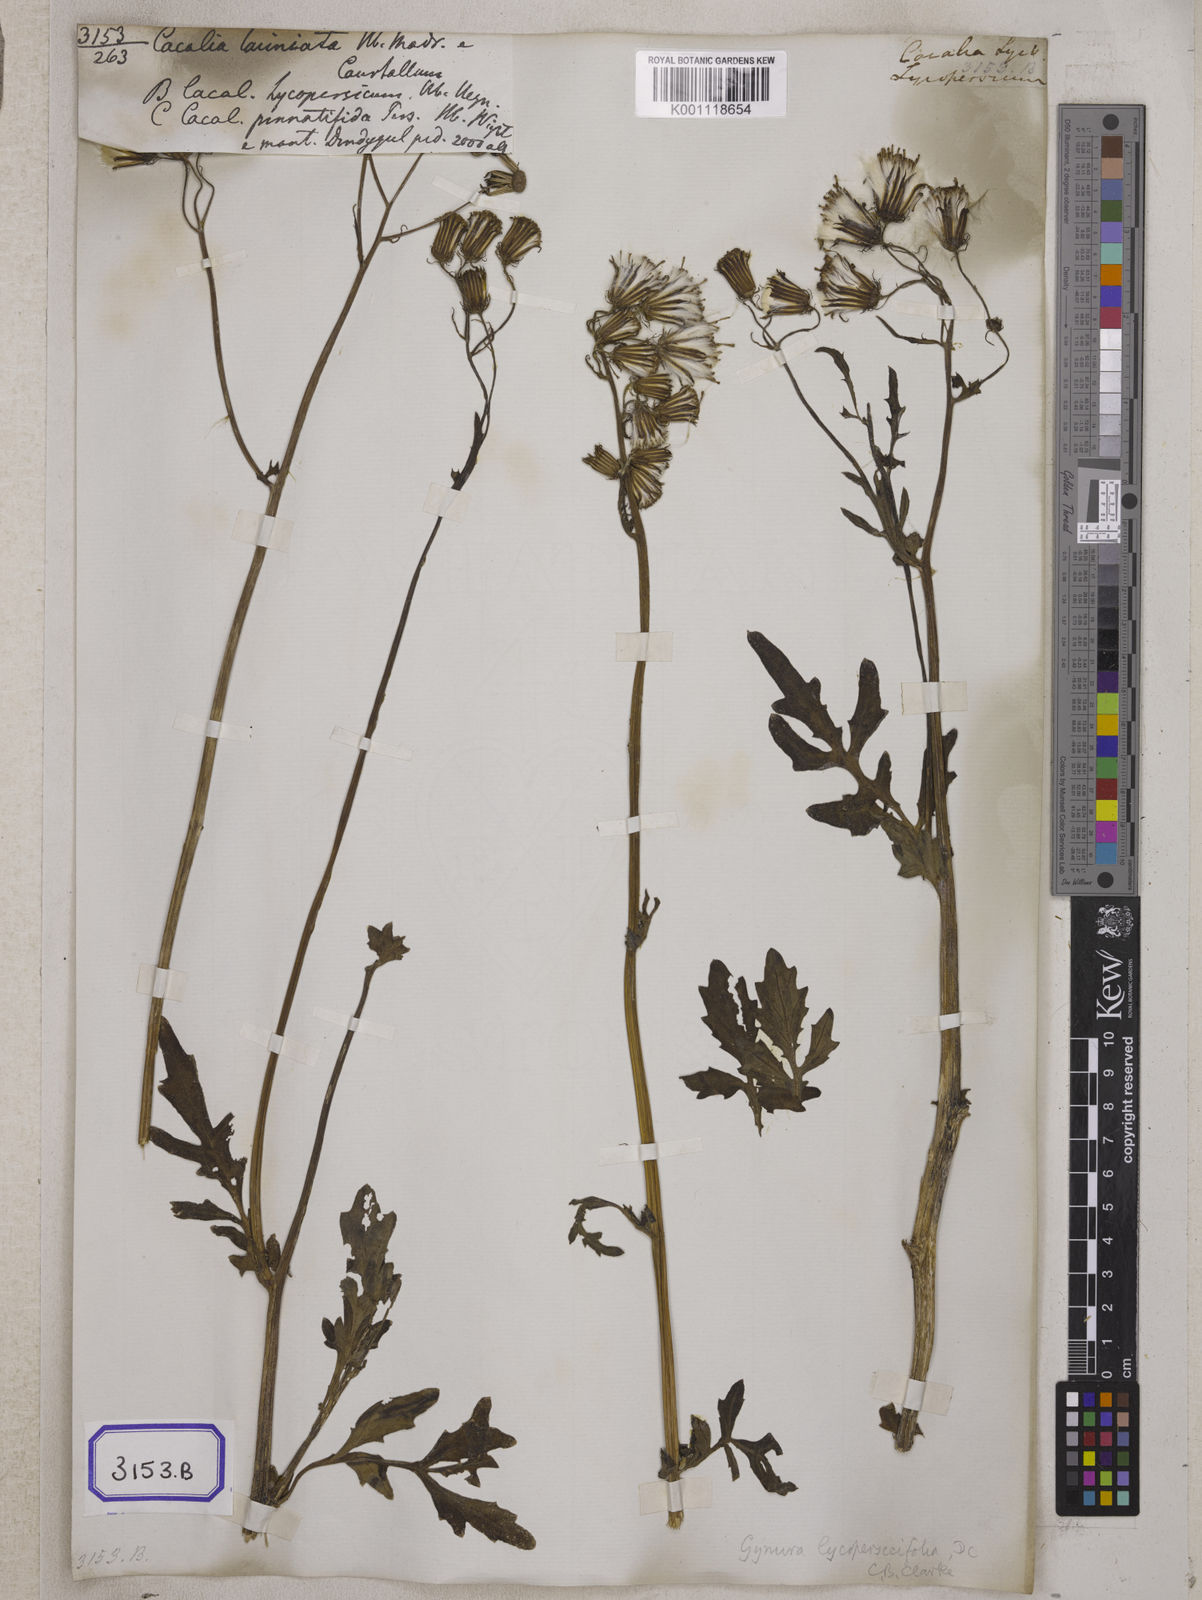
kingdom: Plantae
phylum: Tracheophyta
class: Magnoliopsida
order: Asterales
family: Asteraceae
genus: Gynura
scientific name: Gynura lycopersicifolia
